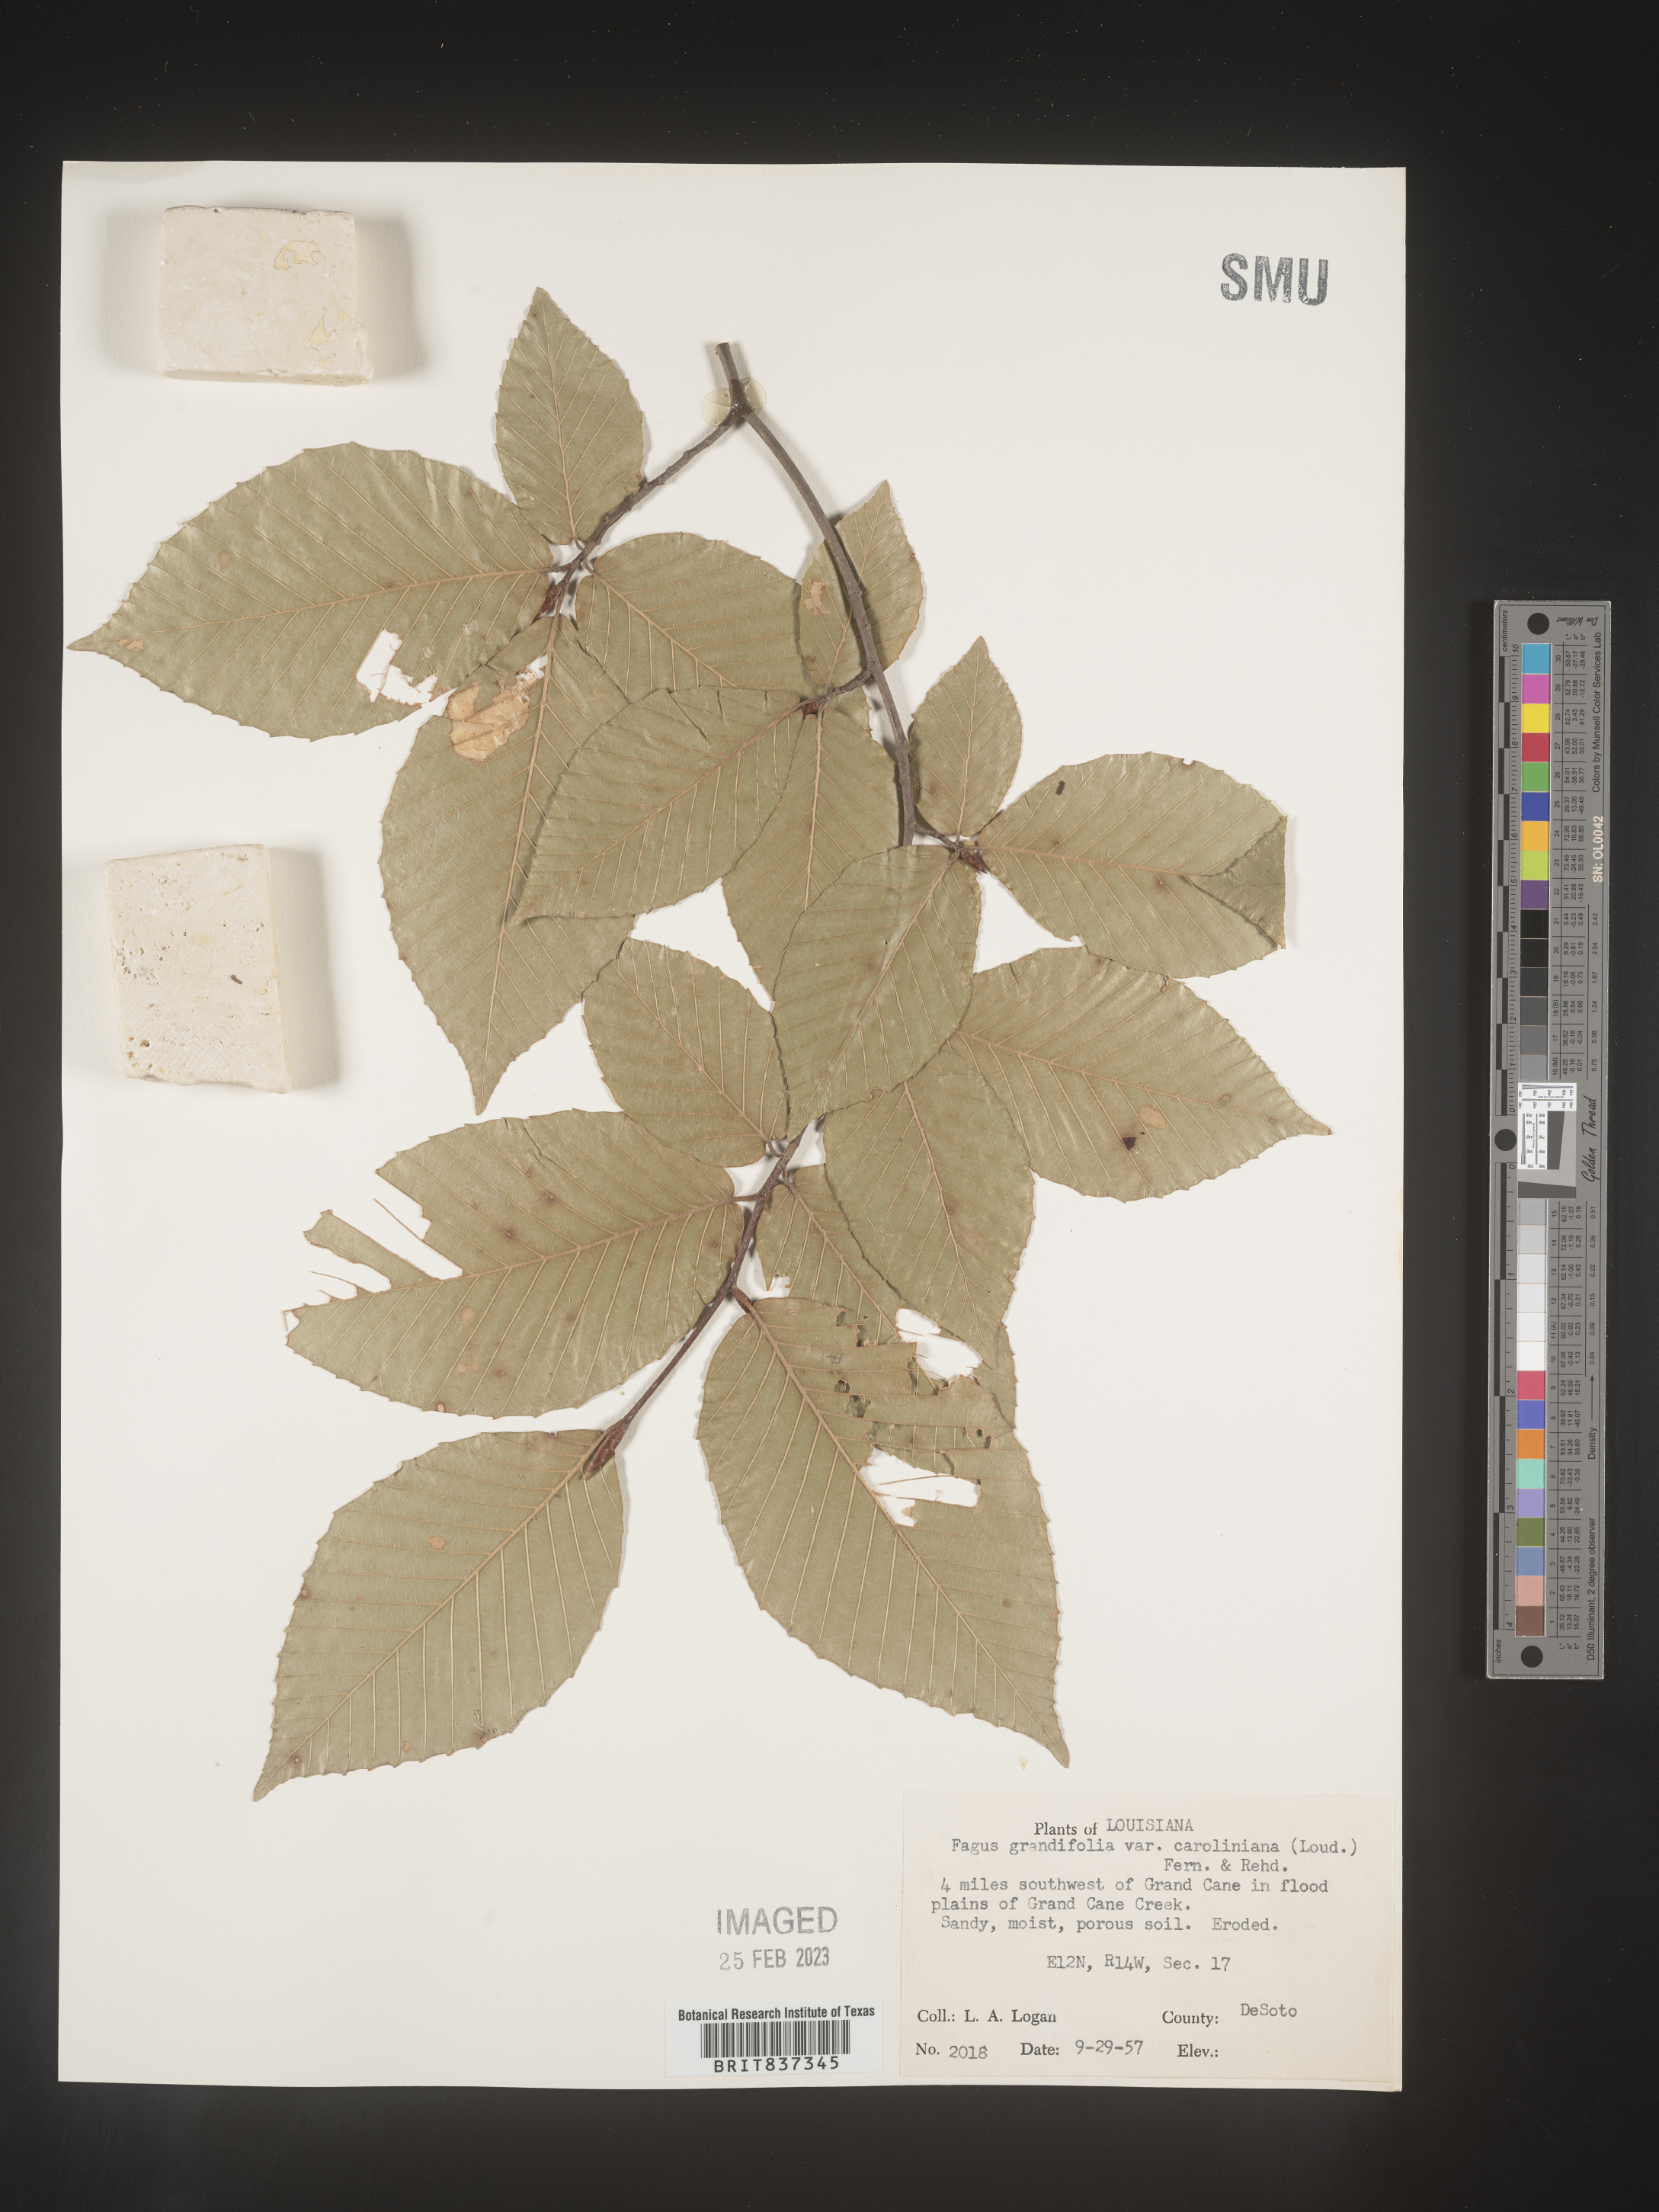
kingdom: Plantae
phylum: Tracheophyta
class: Magnoliopsida
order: Fagales
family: Fagaceae
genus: Fagus
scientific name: Fagus grandifolia
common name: American beech
